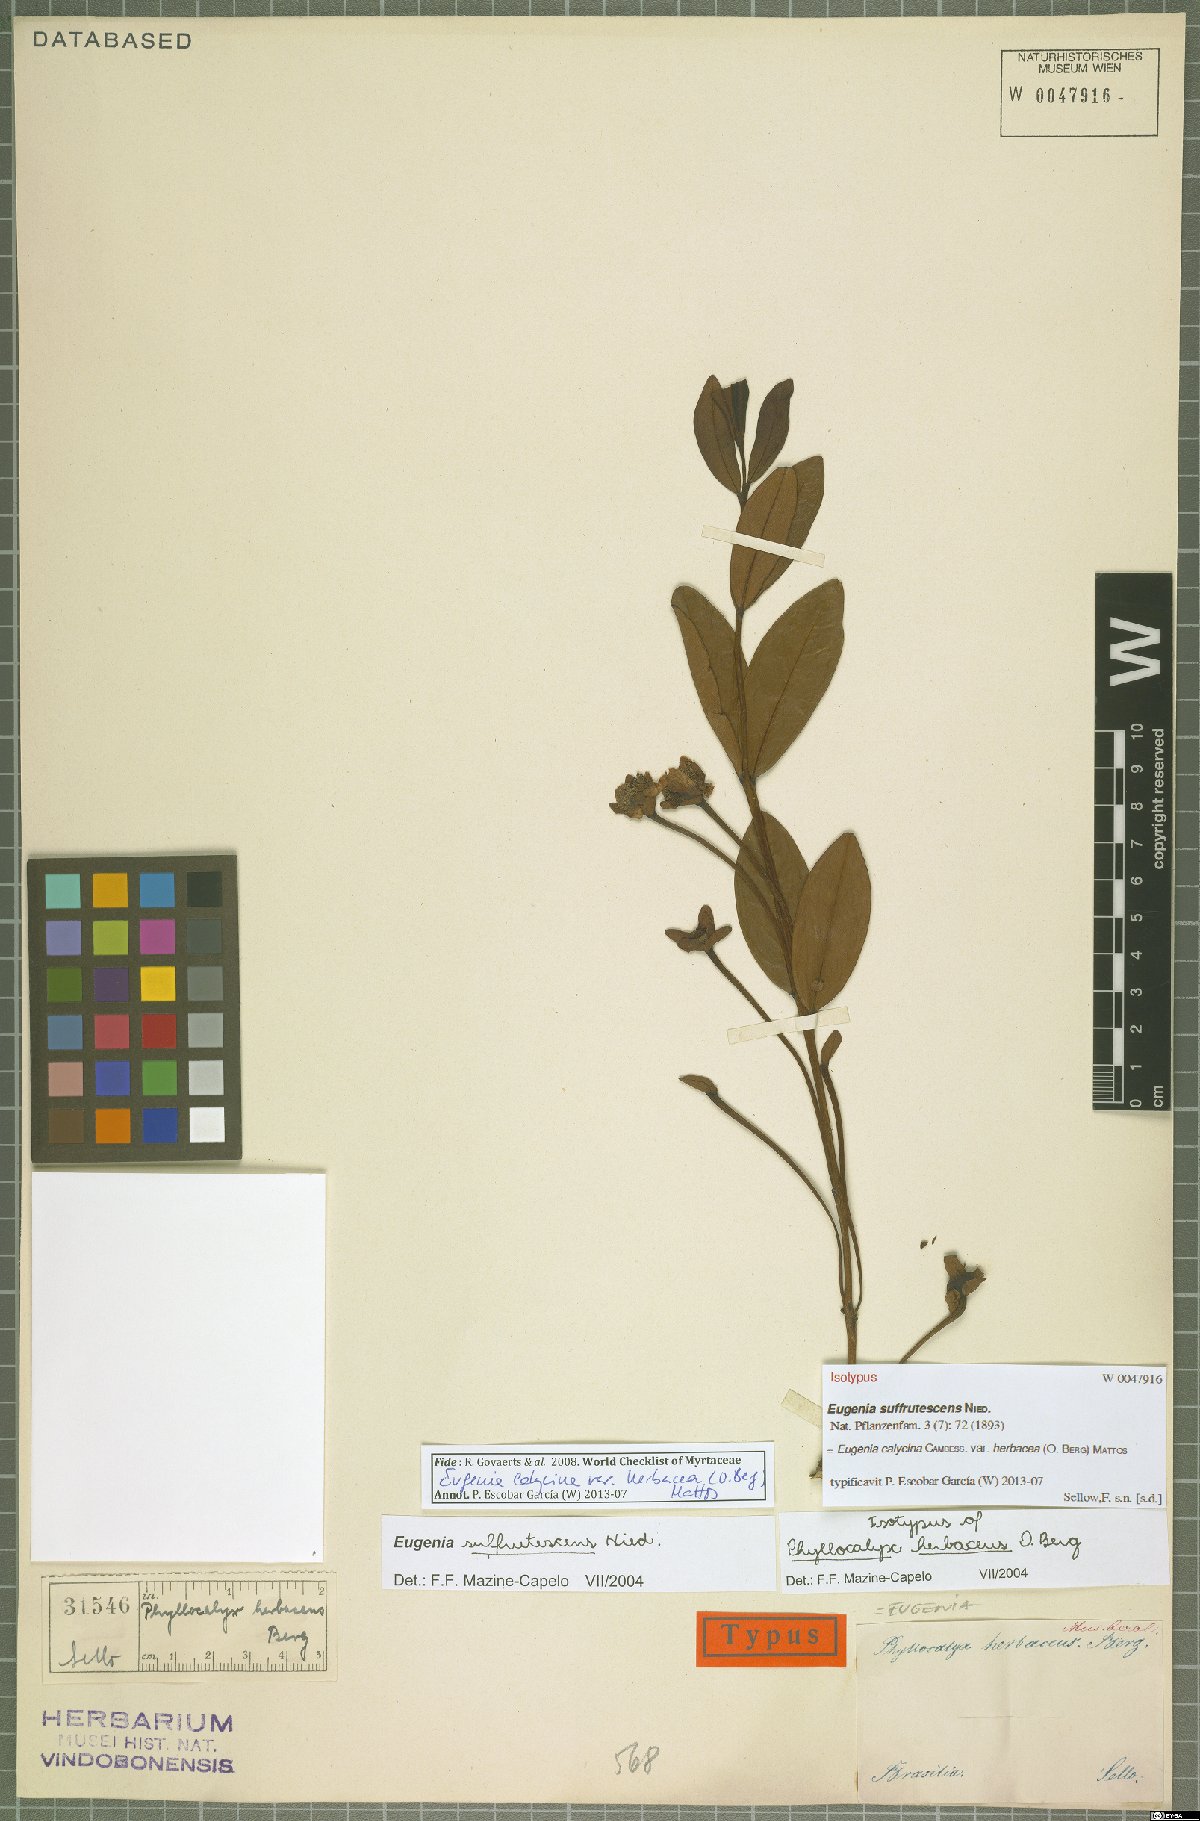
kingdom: Plantae
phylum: Tracheophyta
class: Magnoliopsida
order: Myrtales
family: Myrtaceae
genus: Eugenia
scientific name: Eugenia calycina
